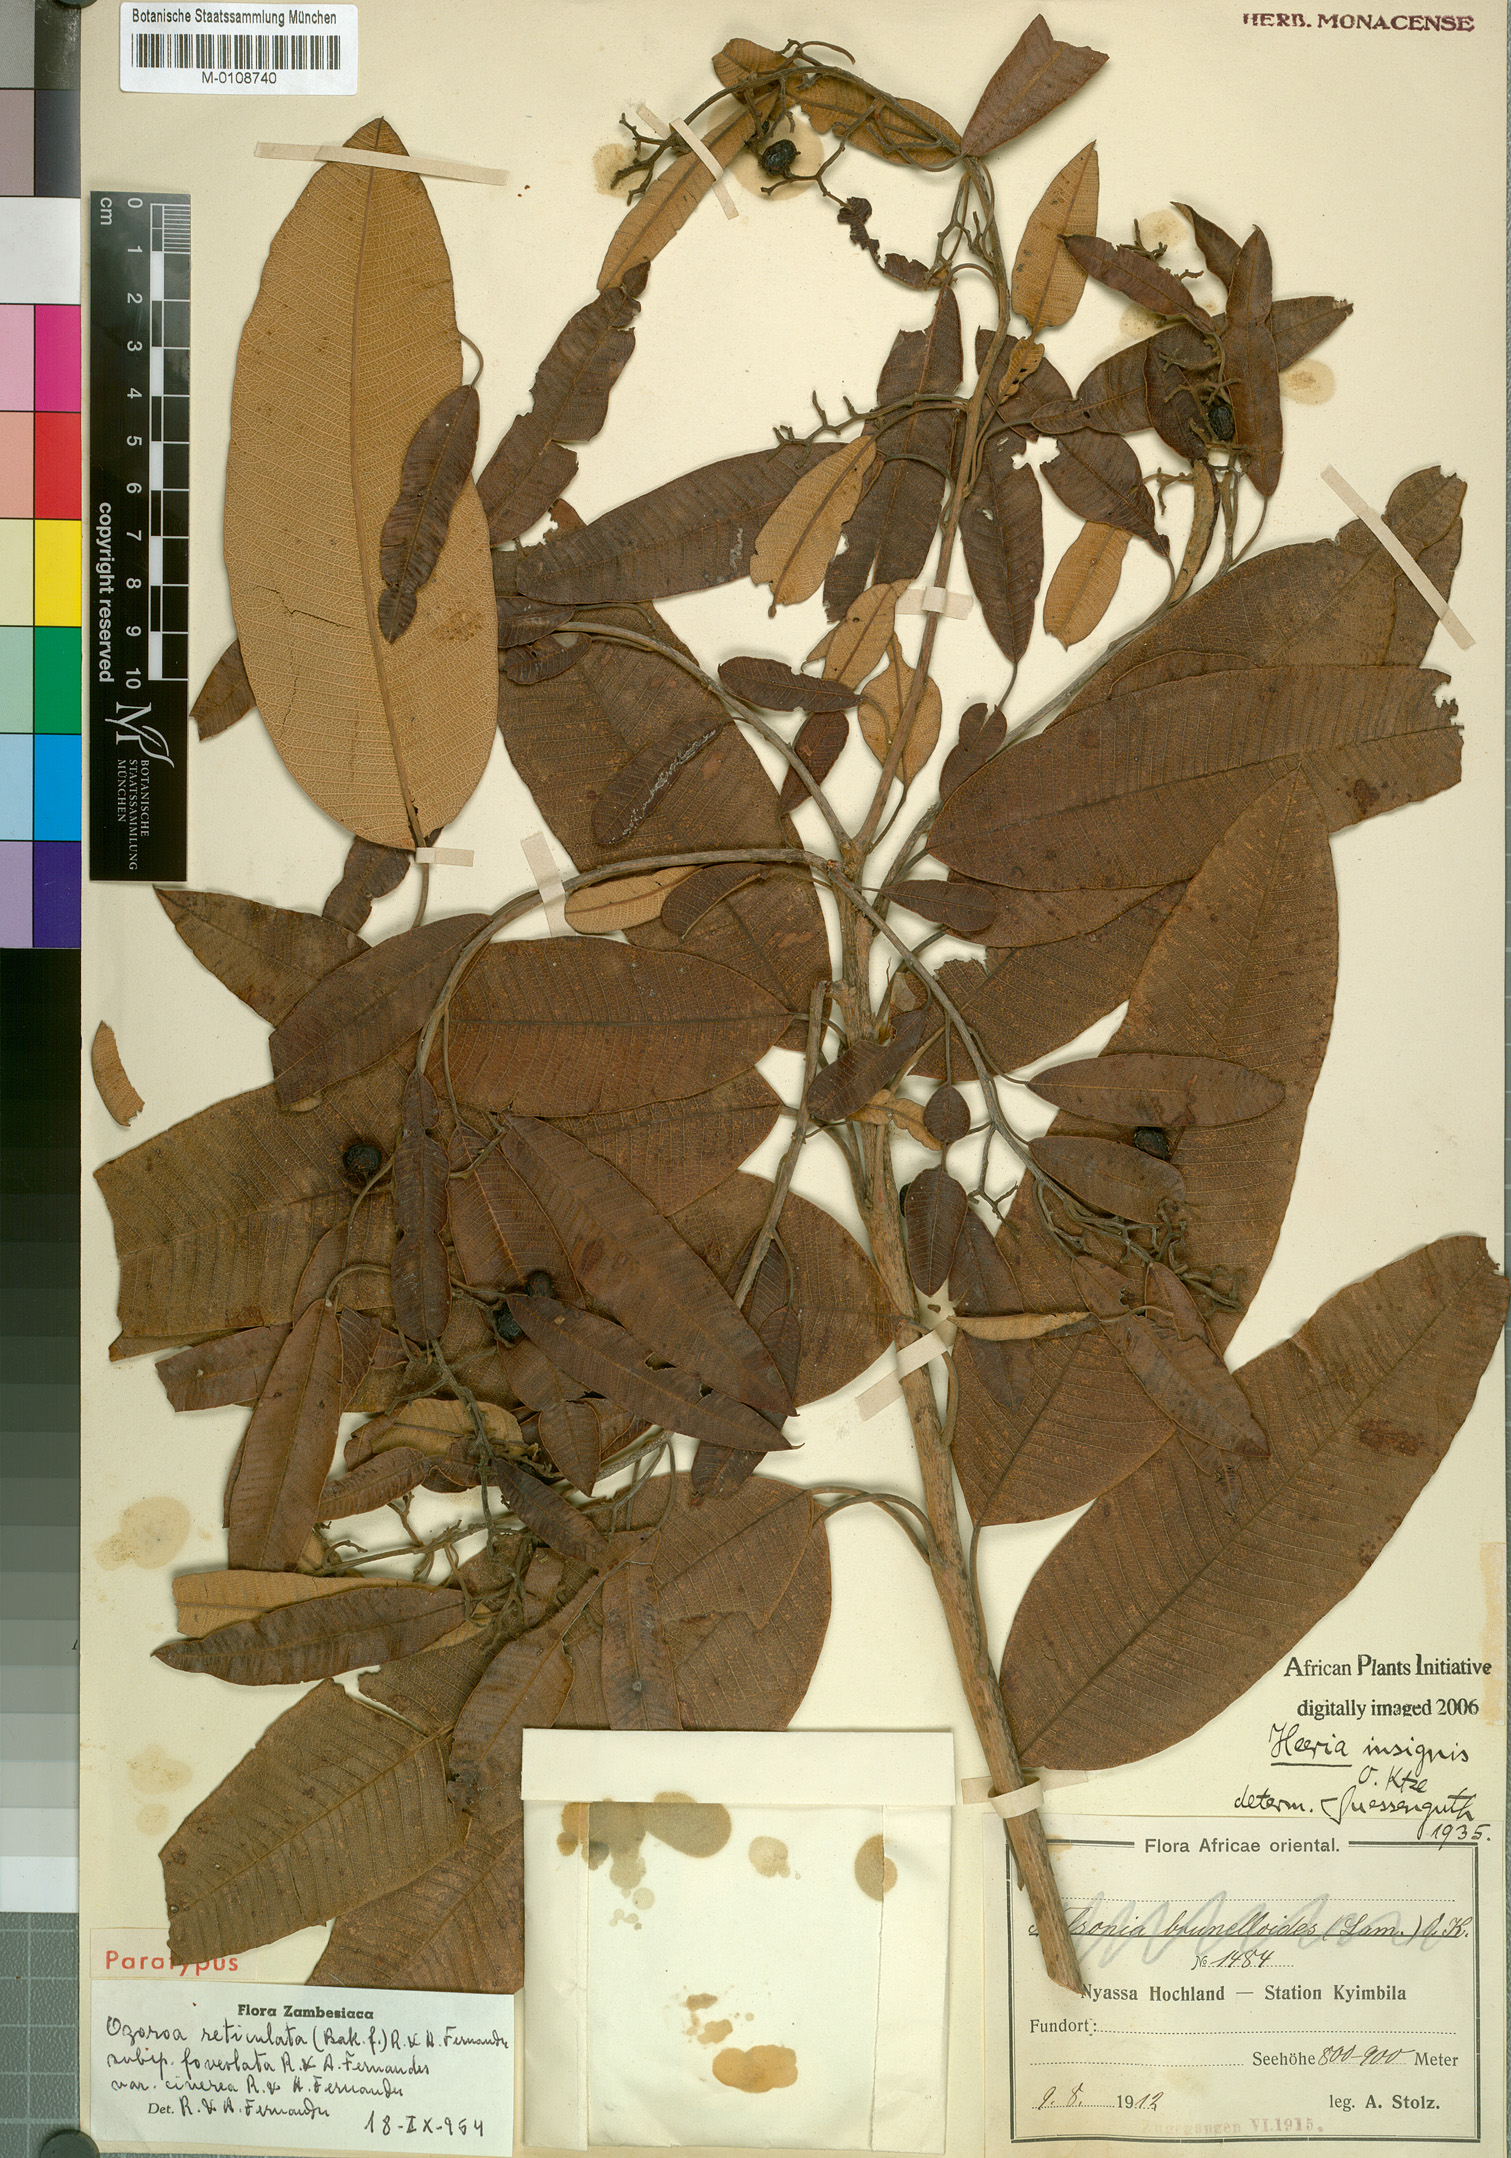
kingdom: Plantae
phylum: Tracheophyta
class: Magnoliopsida
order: Sapindales
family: Anacardiaceae
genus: Ozoroa
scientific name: Ozoroa insignis
